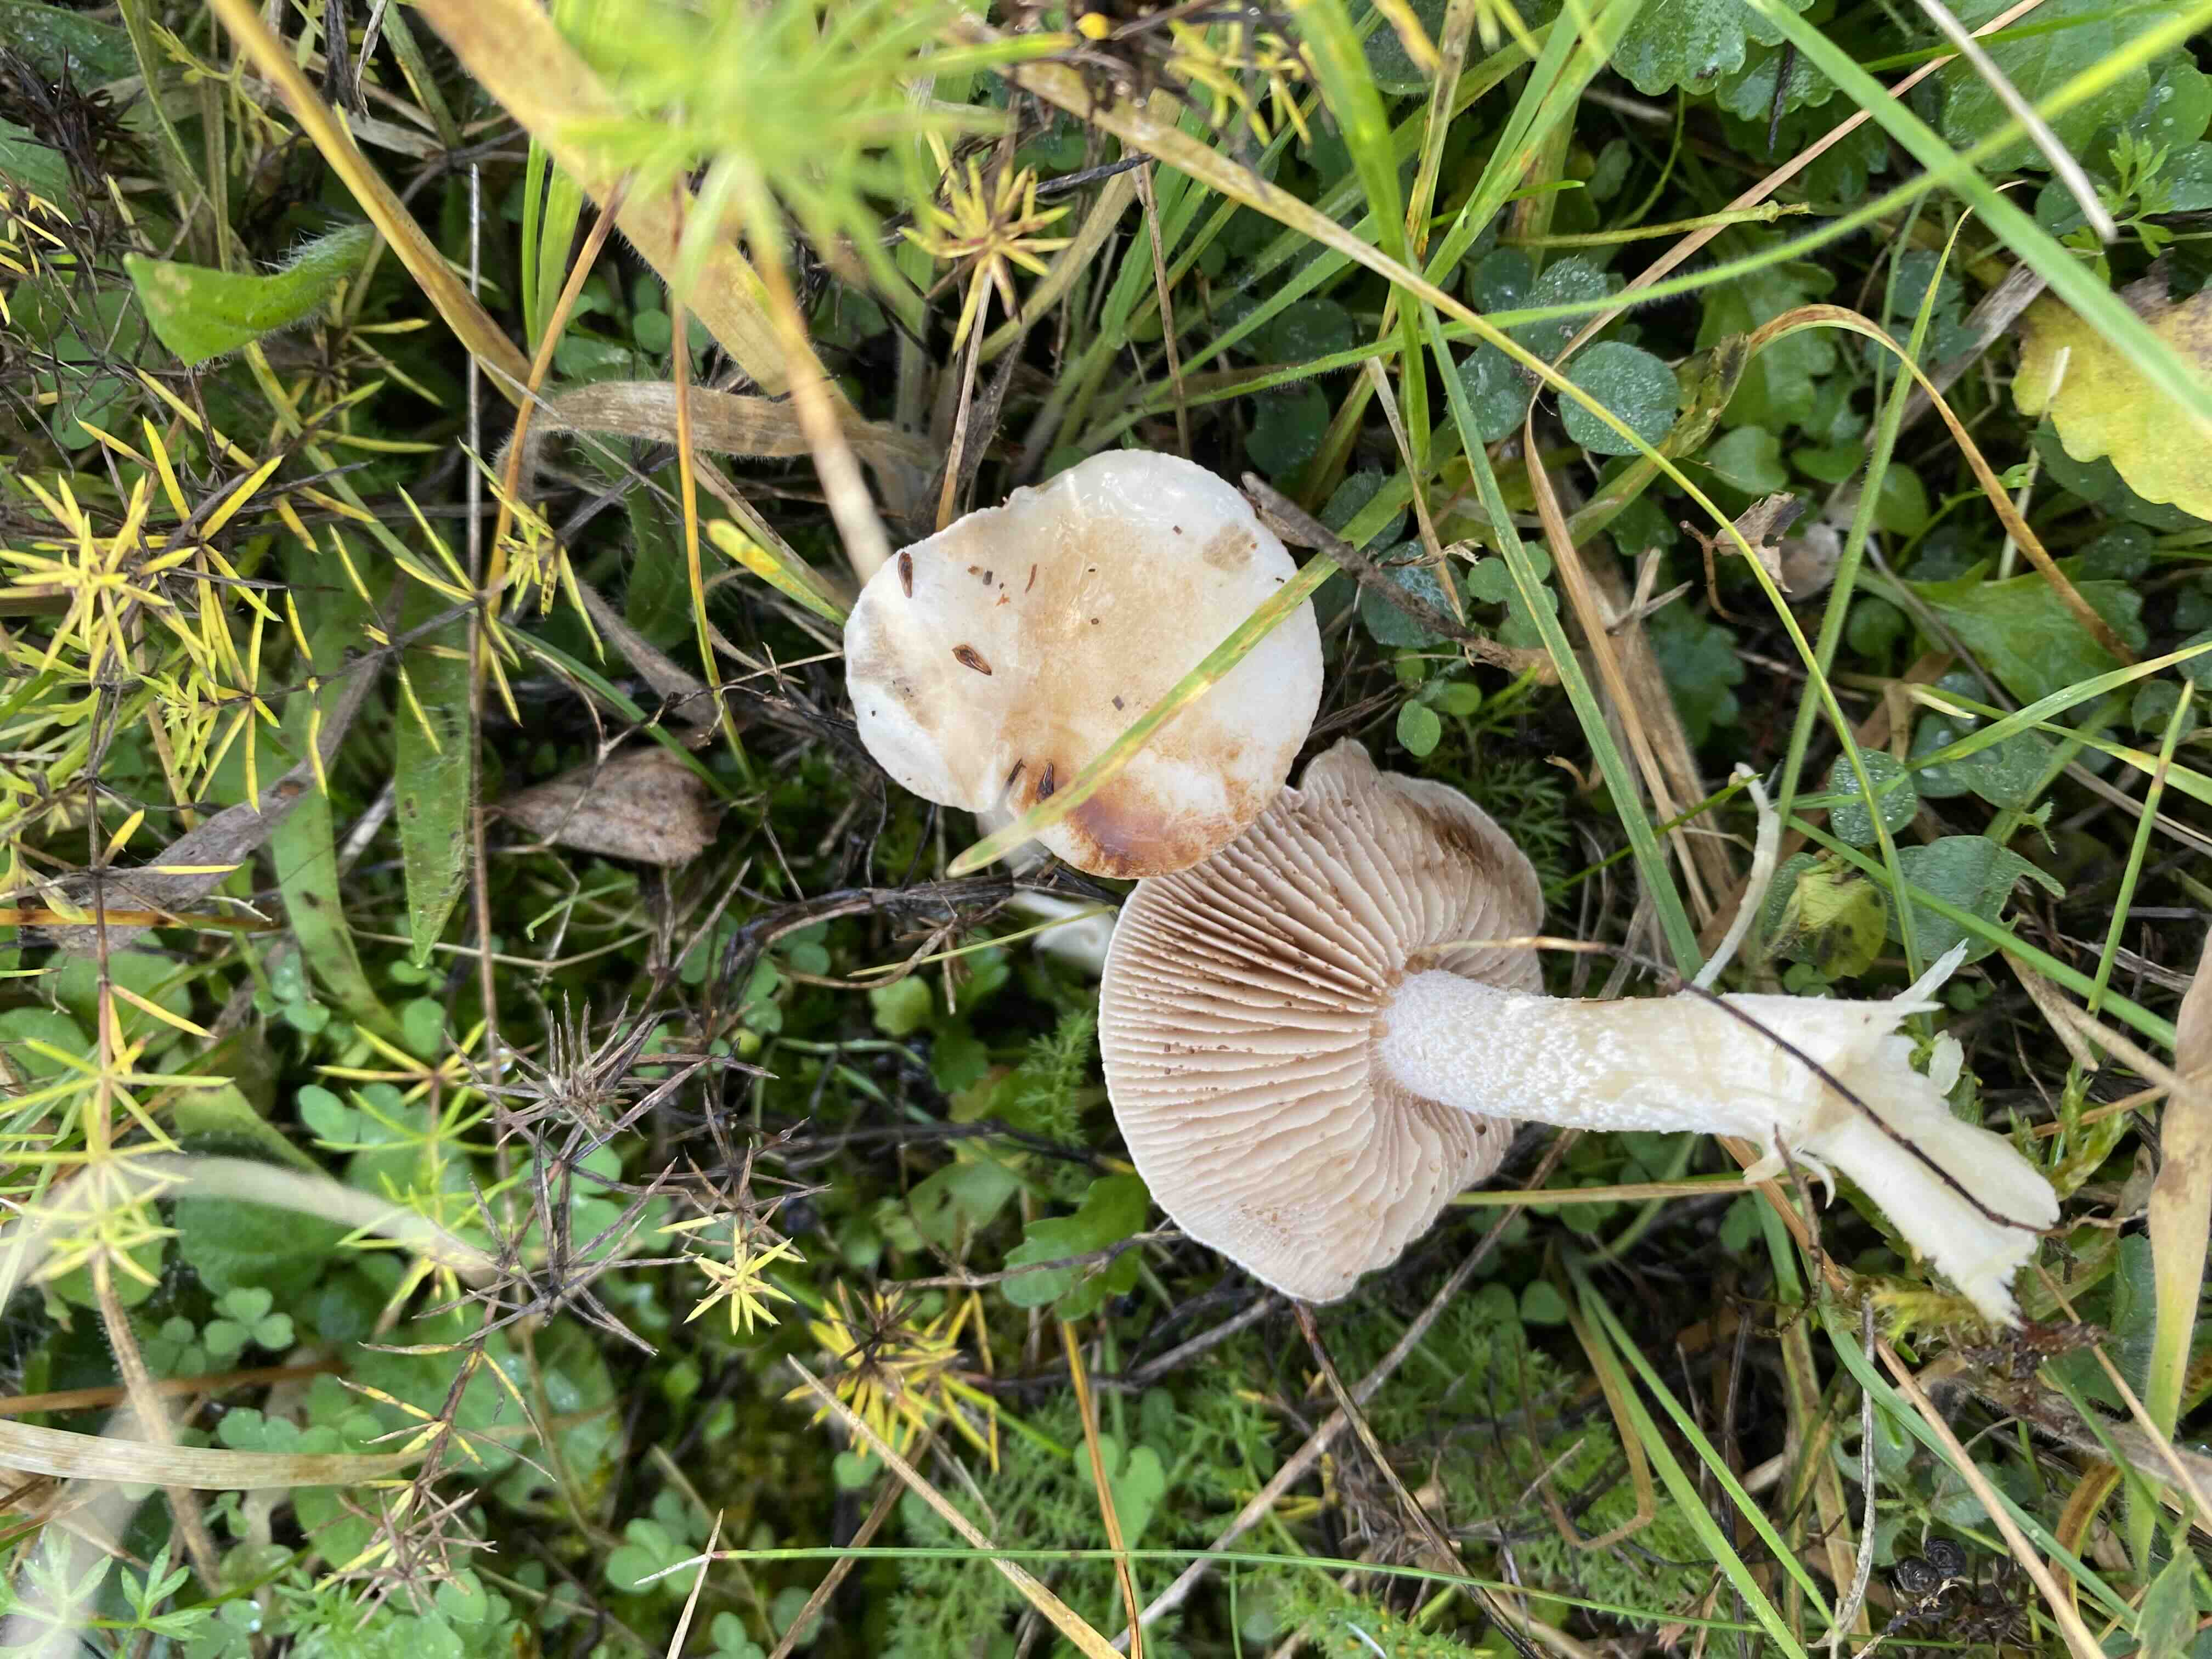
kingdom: Fungi
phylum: Basidiomycota
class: Agaricomycetes
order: Agaricales
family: Hymenogastraceae
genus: Hebeloma
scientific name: Hebeloma
